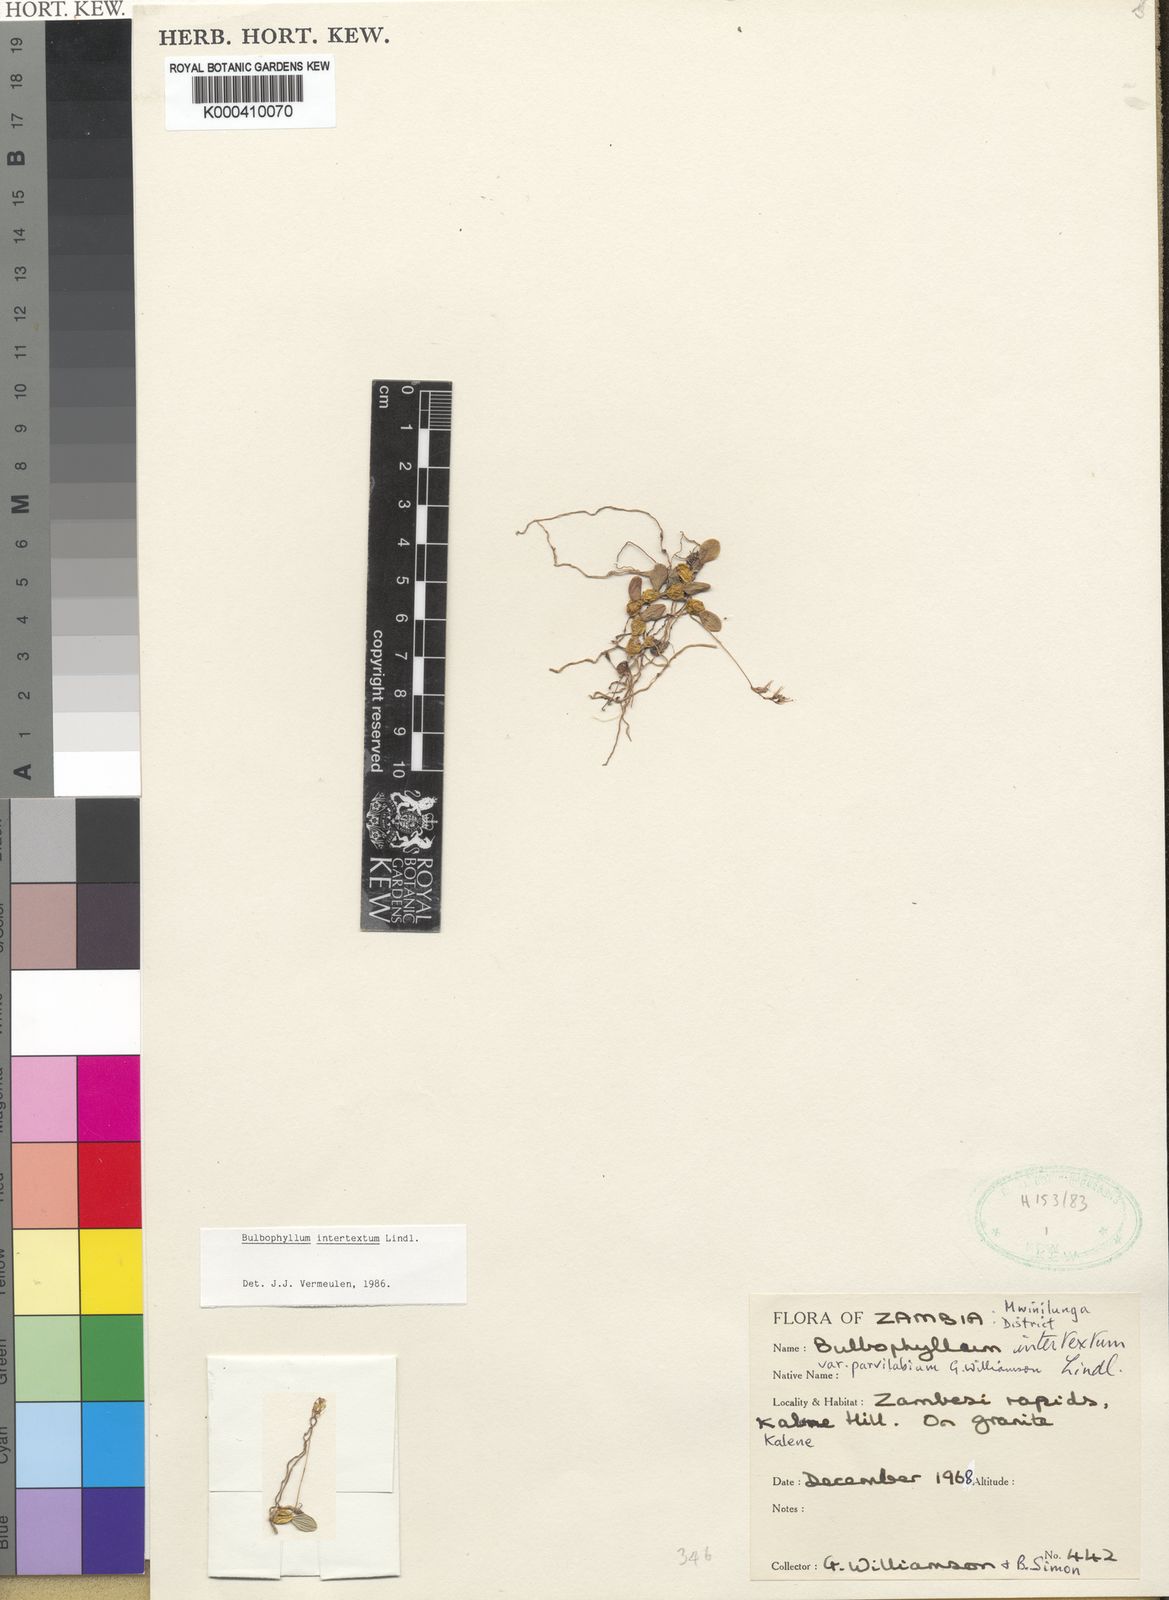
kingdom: Plantae
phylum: Tracheophyta
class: Liliopsida
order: Asparagales
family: Orchidaceae
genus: Bulbophyllum
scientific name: Bulbophyllum intertextum
